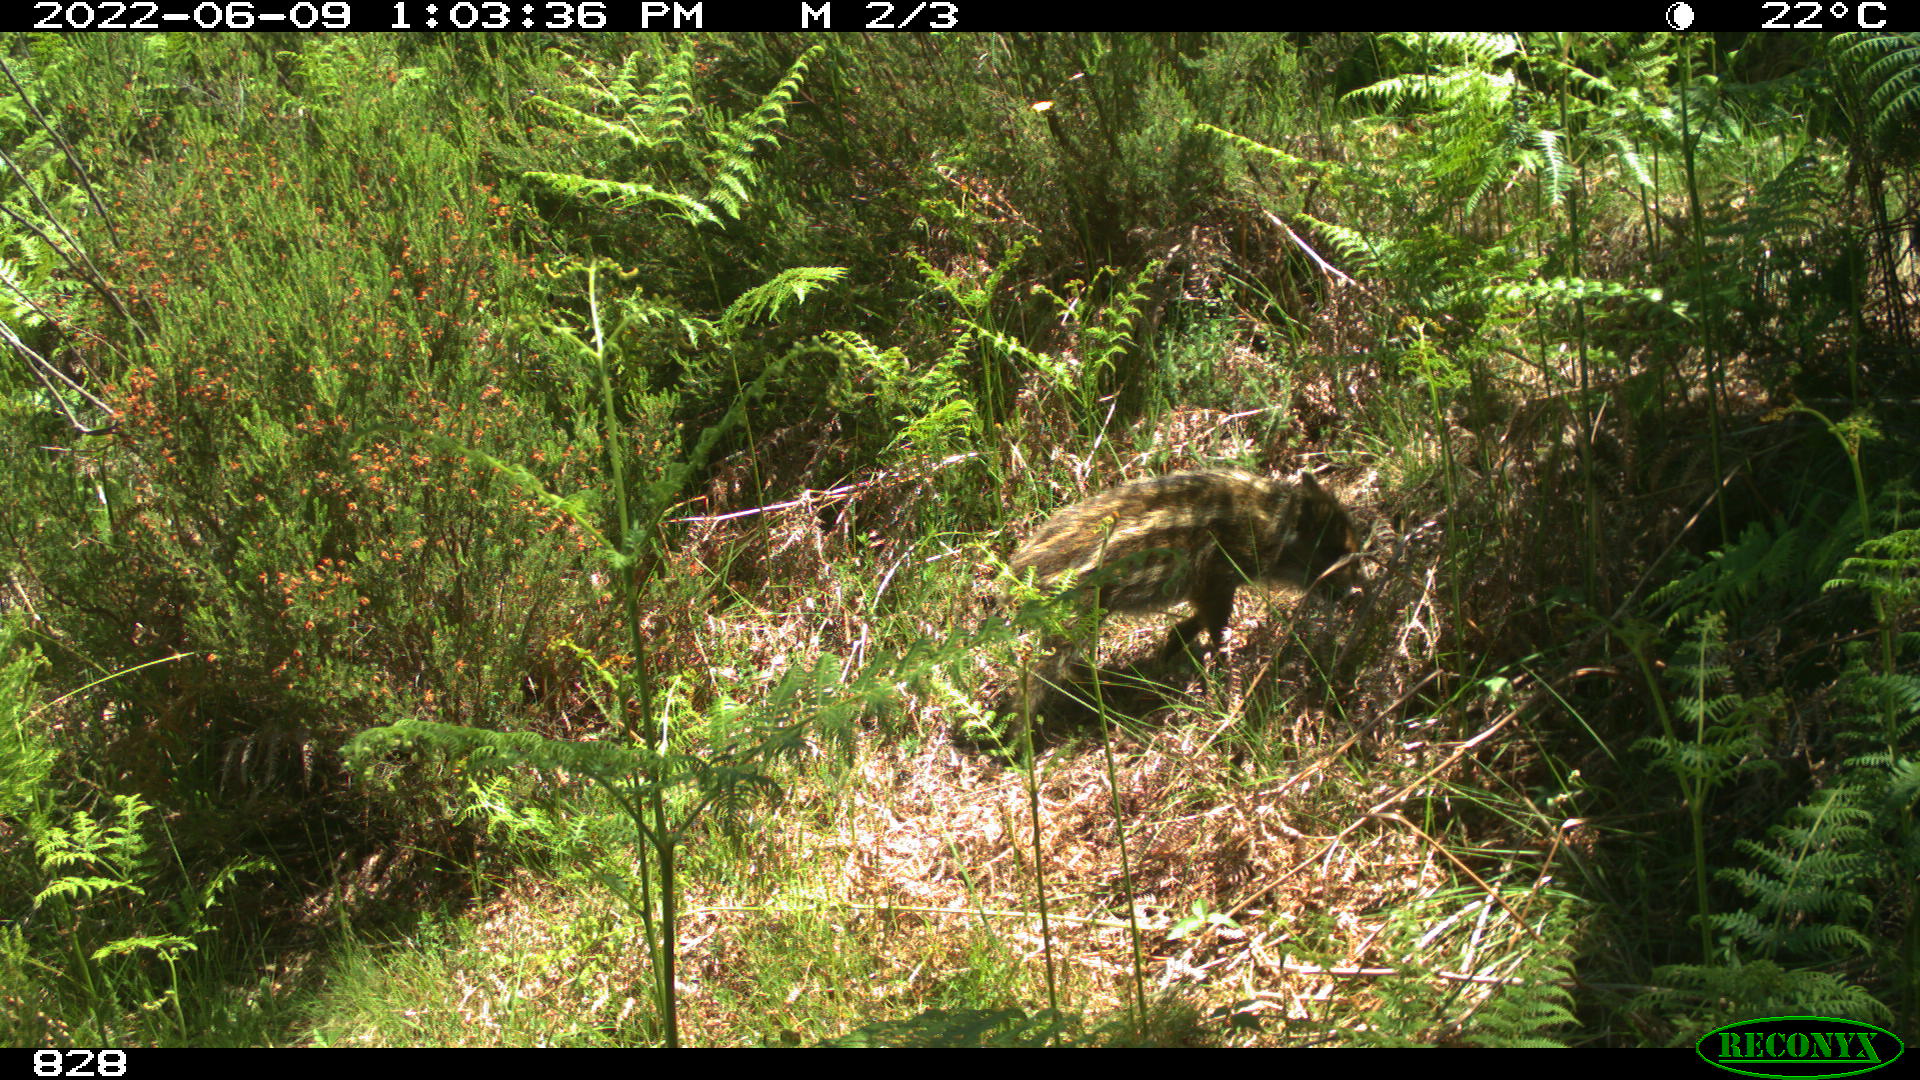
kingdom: Animalia
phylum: Chordata
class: Mammalia
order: Artiodactyla
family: Suidae
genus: Sus
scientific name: Sus scrofa
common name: Wild boar
